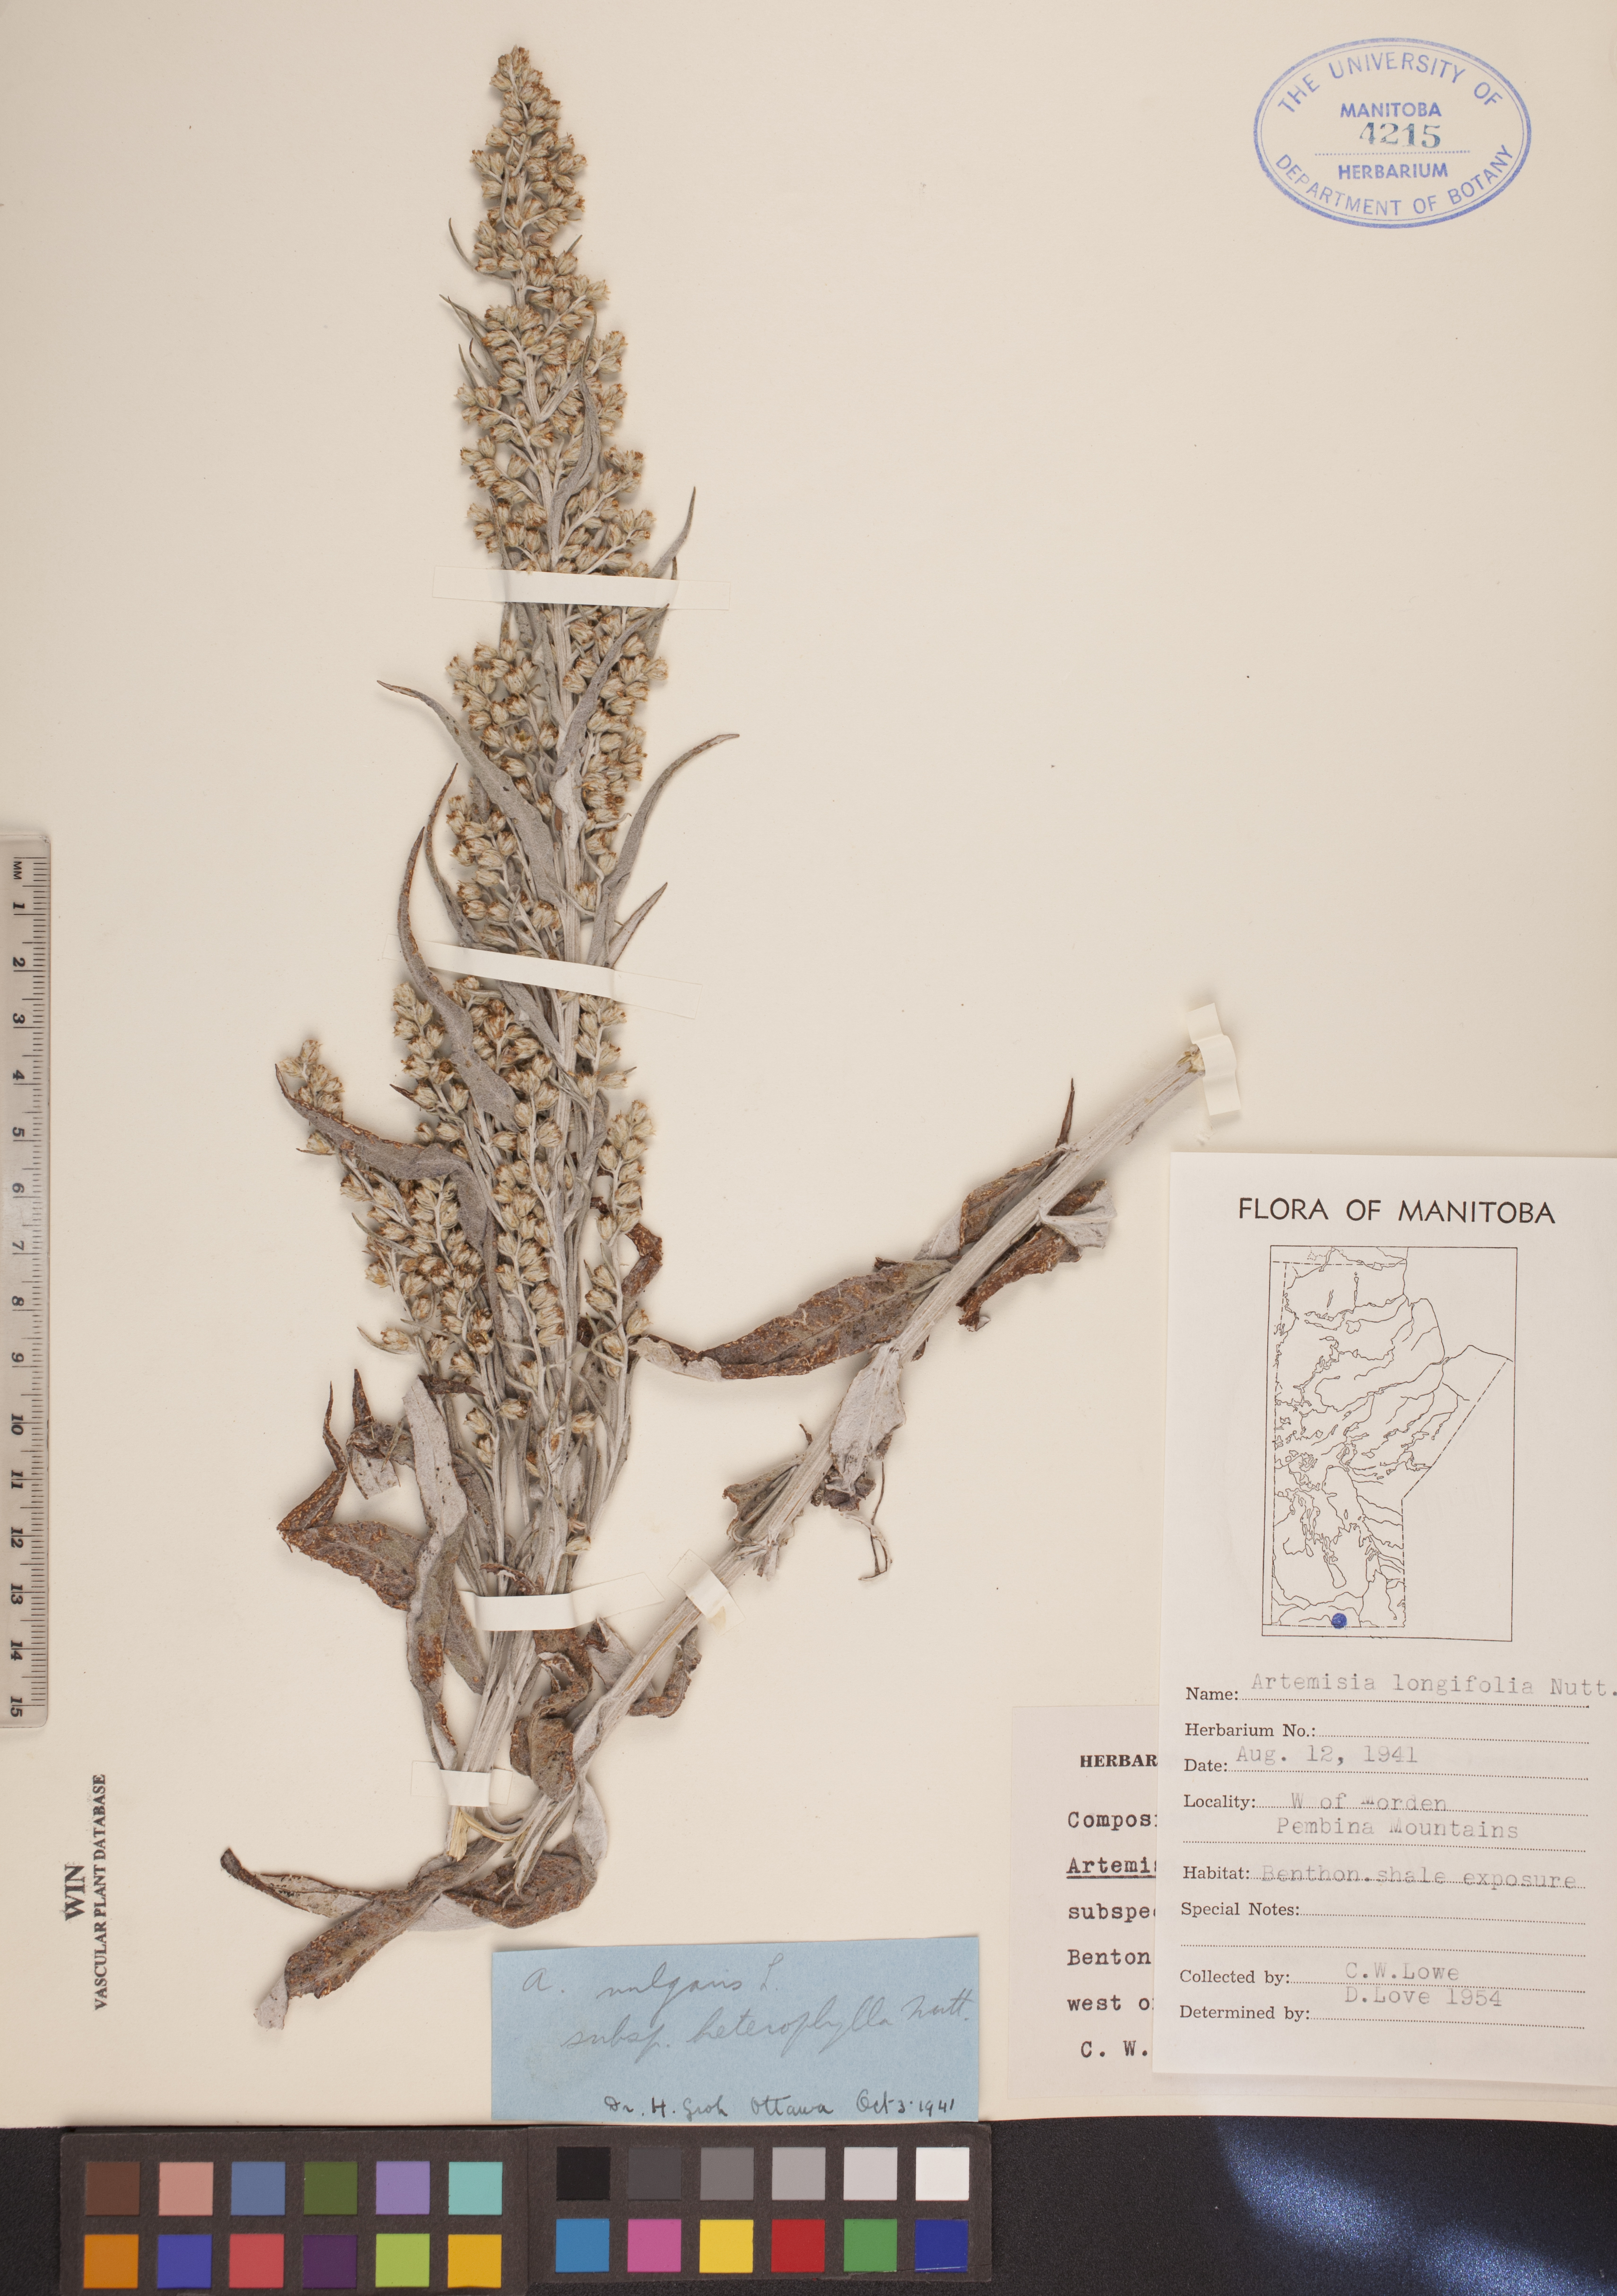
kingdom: Plantae
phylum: Tracheophyta
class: Magnoliopsida
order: Asterales
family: Asteraceae
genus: Artemisia
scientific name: Artemisia longifolia
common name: Long-leaved mugwort
